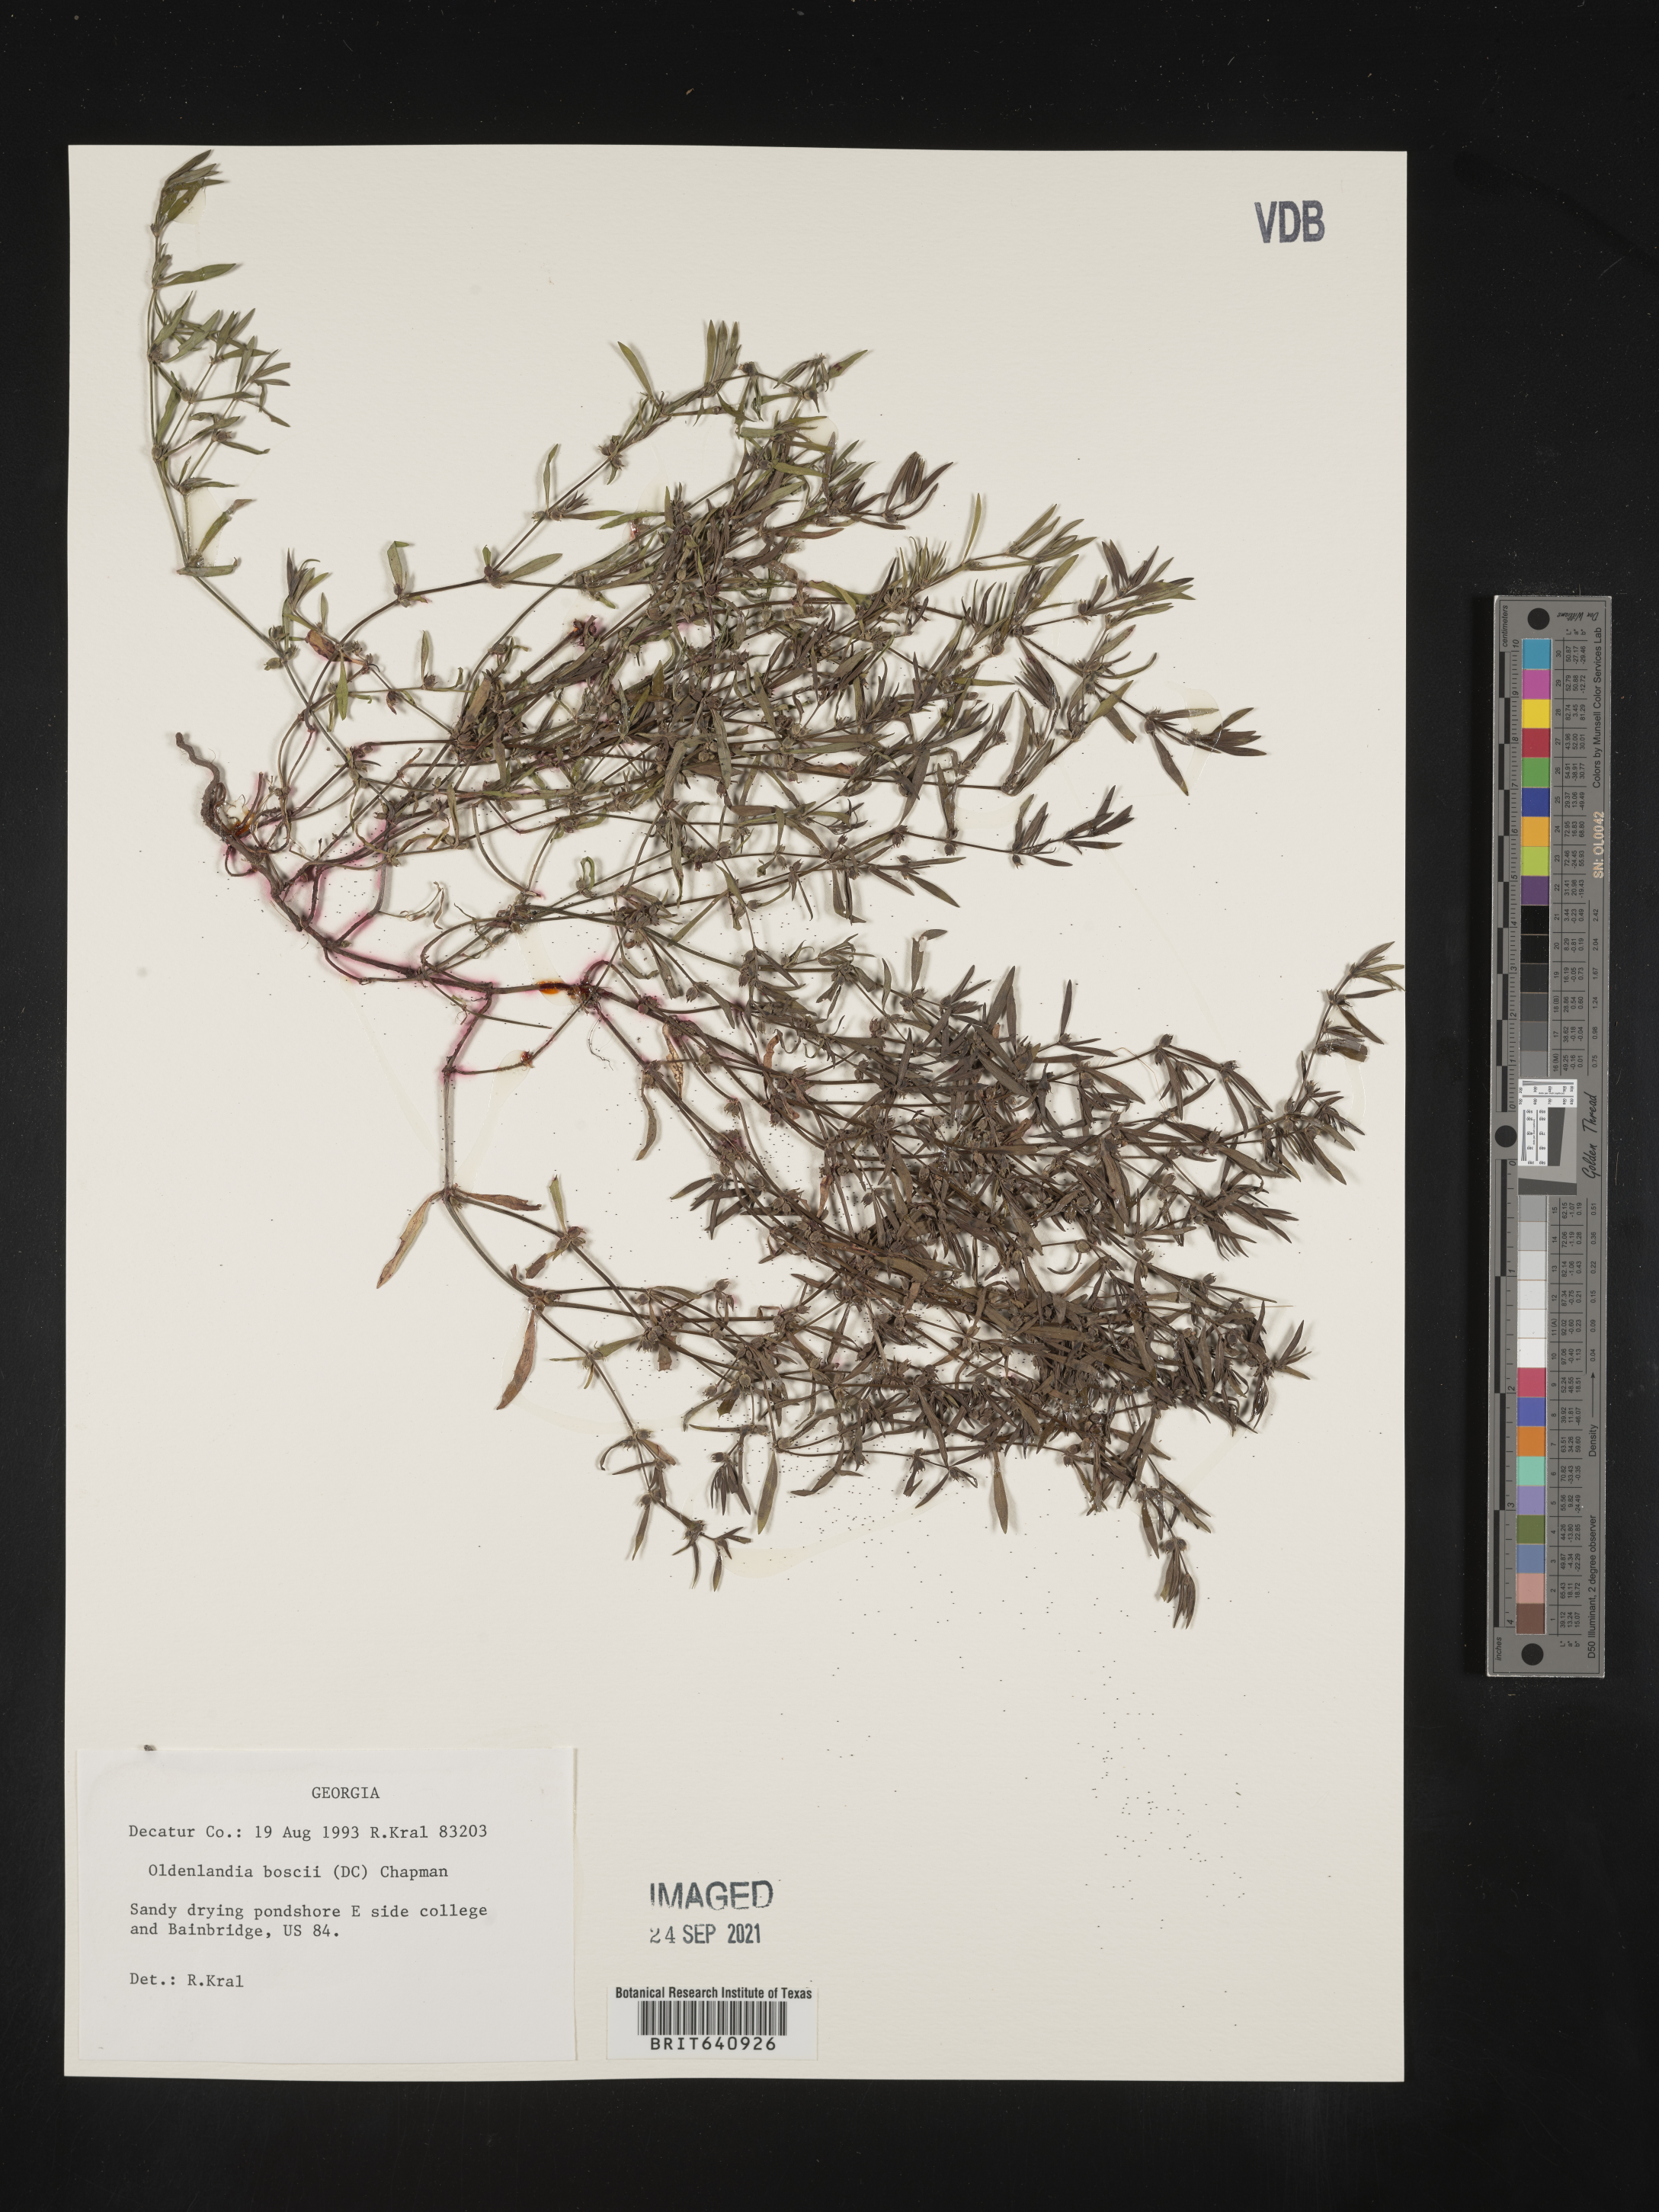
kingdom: Plantae
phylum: Tracheophyta
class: Magnoliopsida
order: Gentianales
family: Rubiaceae
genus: Oldenlandia
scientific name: Oldenlandia boscii
